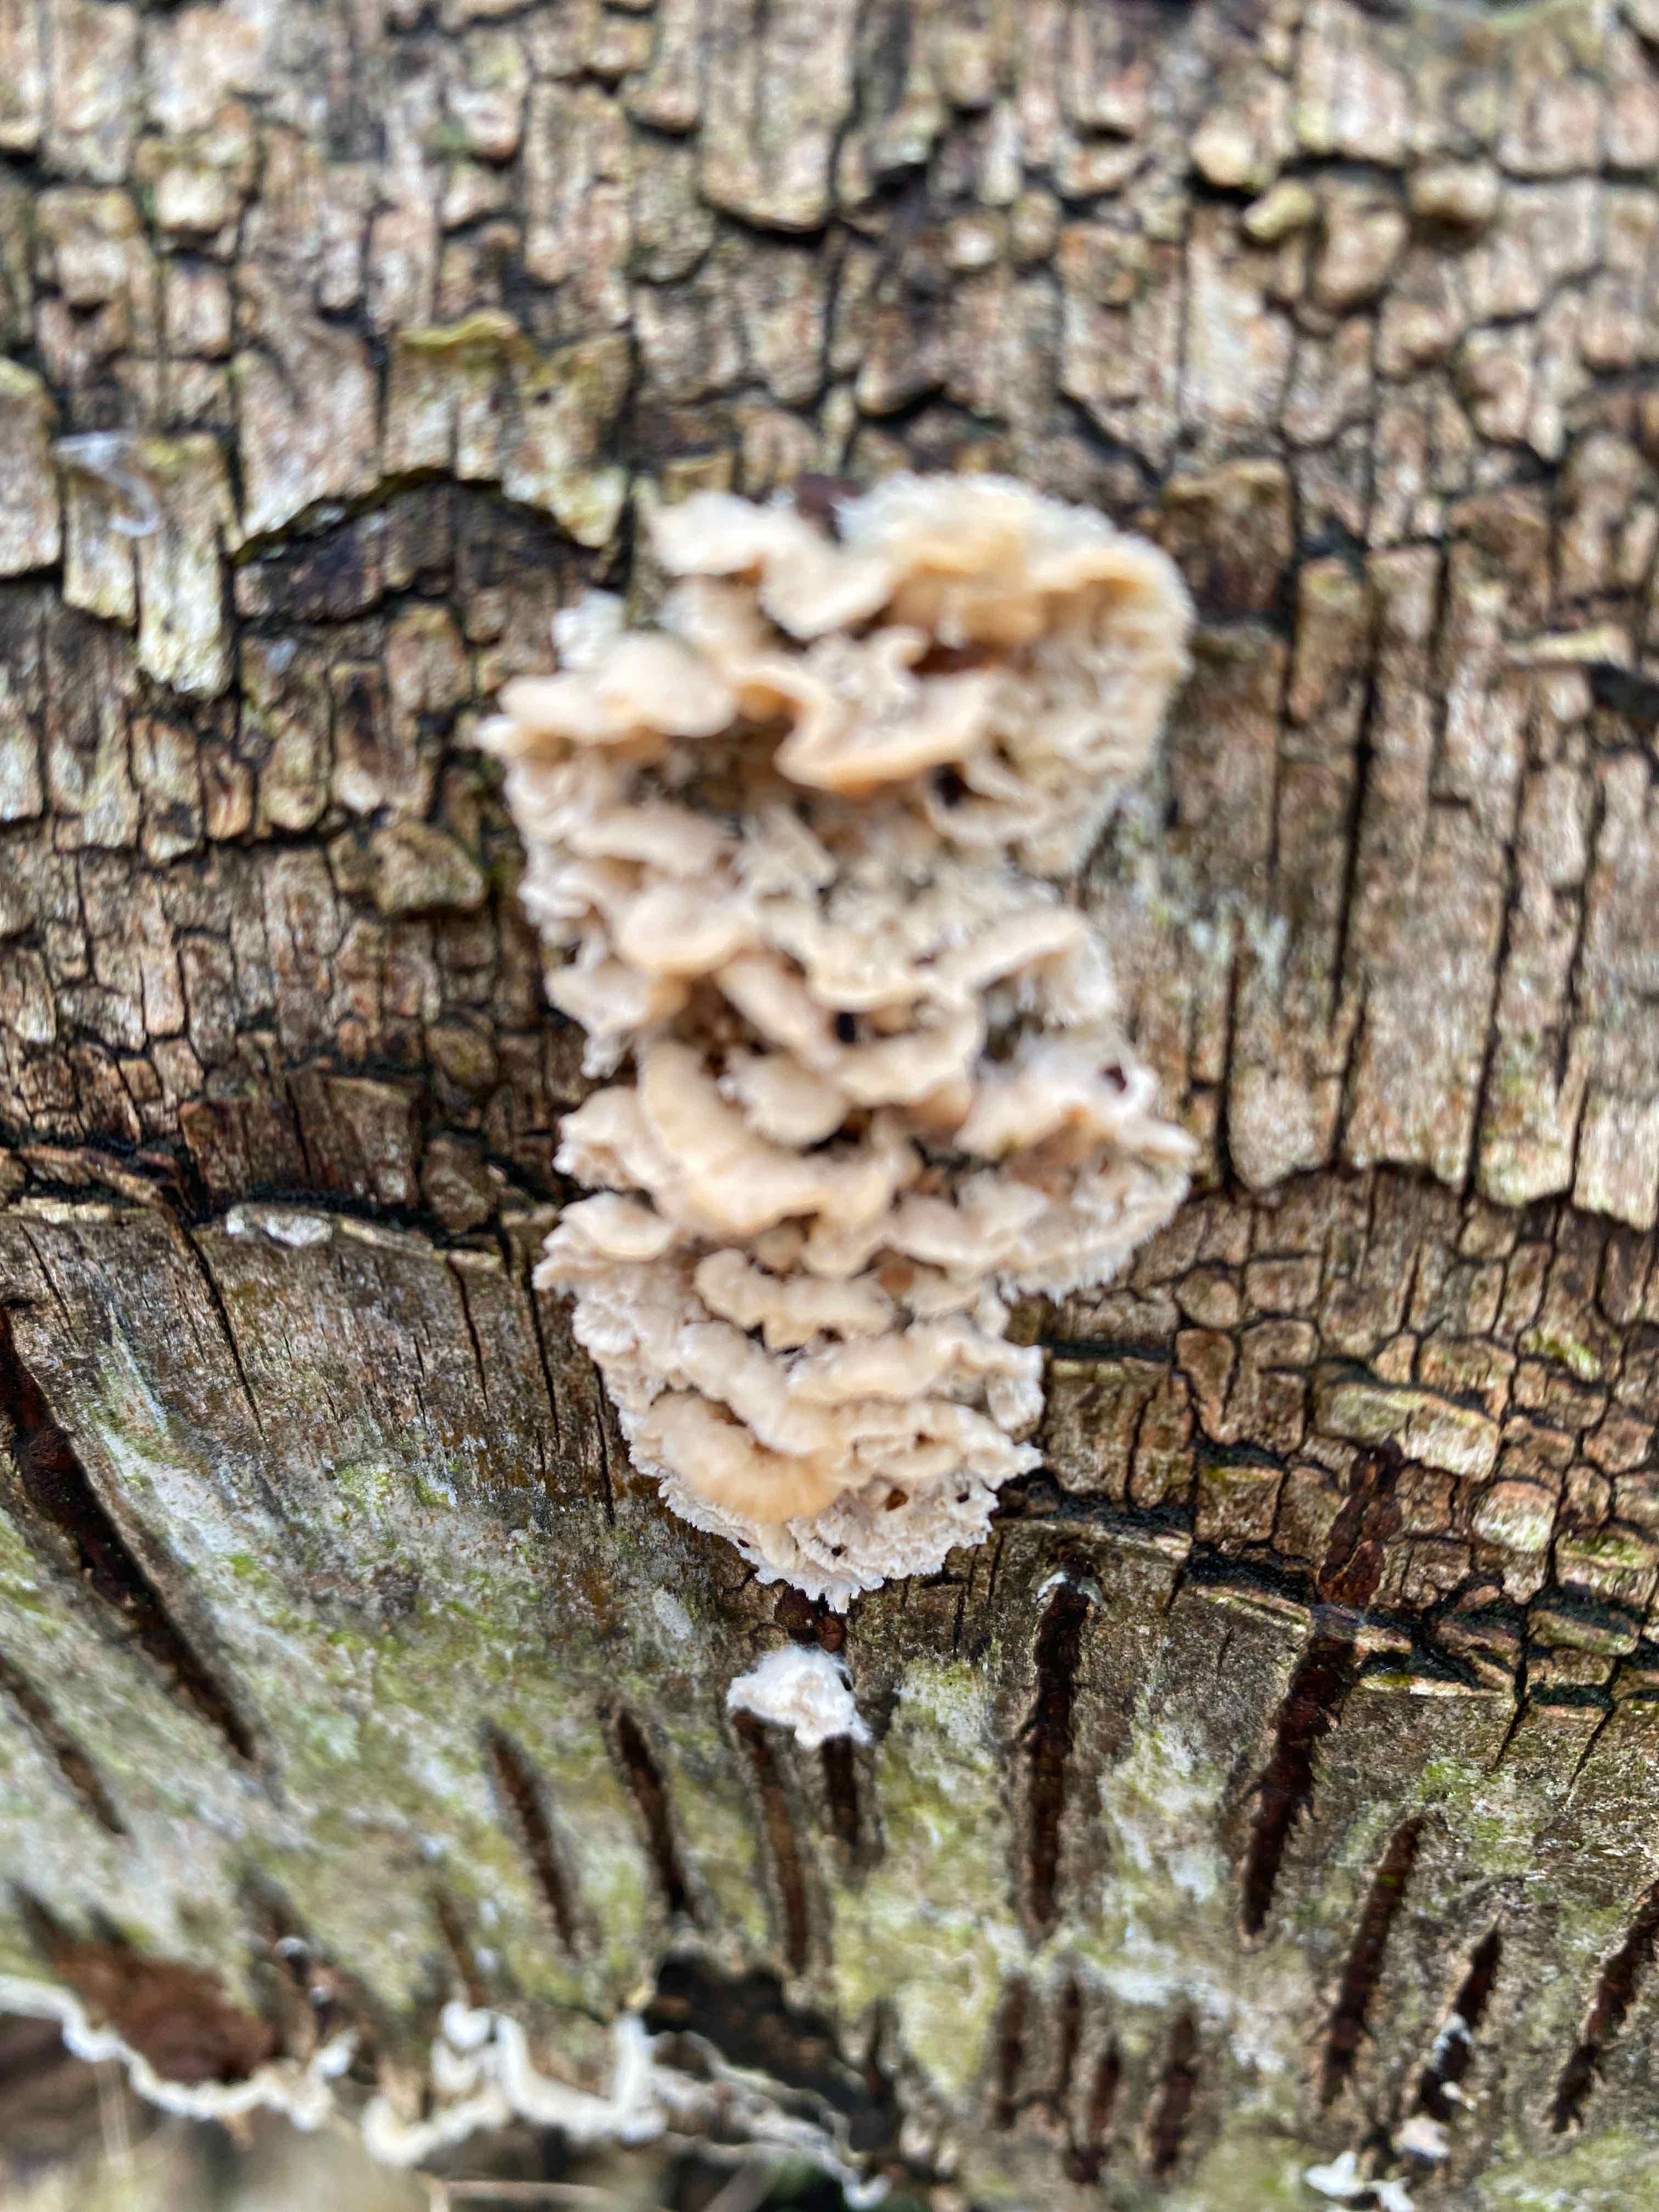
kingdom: Fungi
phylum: Basidiomycota
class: Agaricomycetes
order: Amylocorticiales
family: Amylocorticiaceae
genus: Plicaturopsis
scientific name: Plicaturopsis crispa
